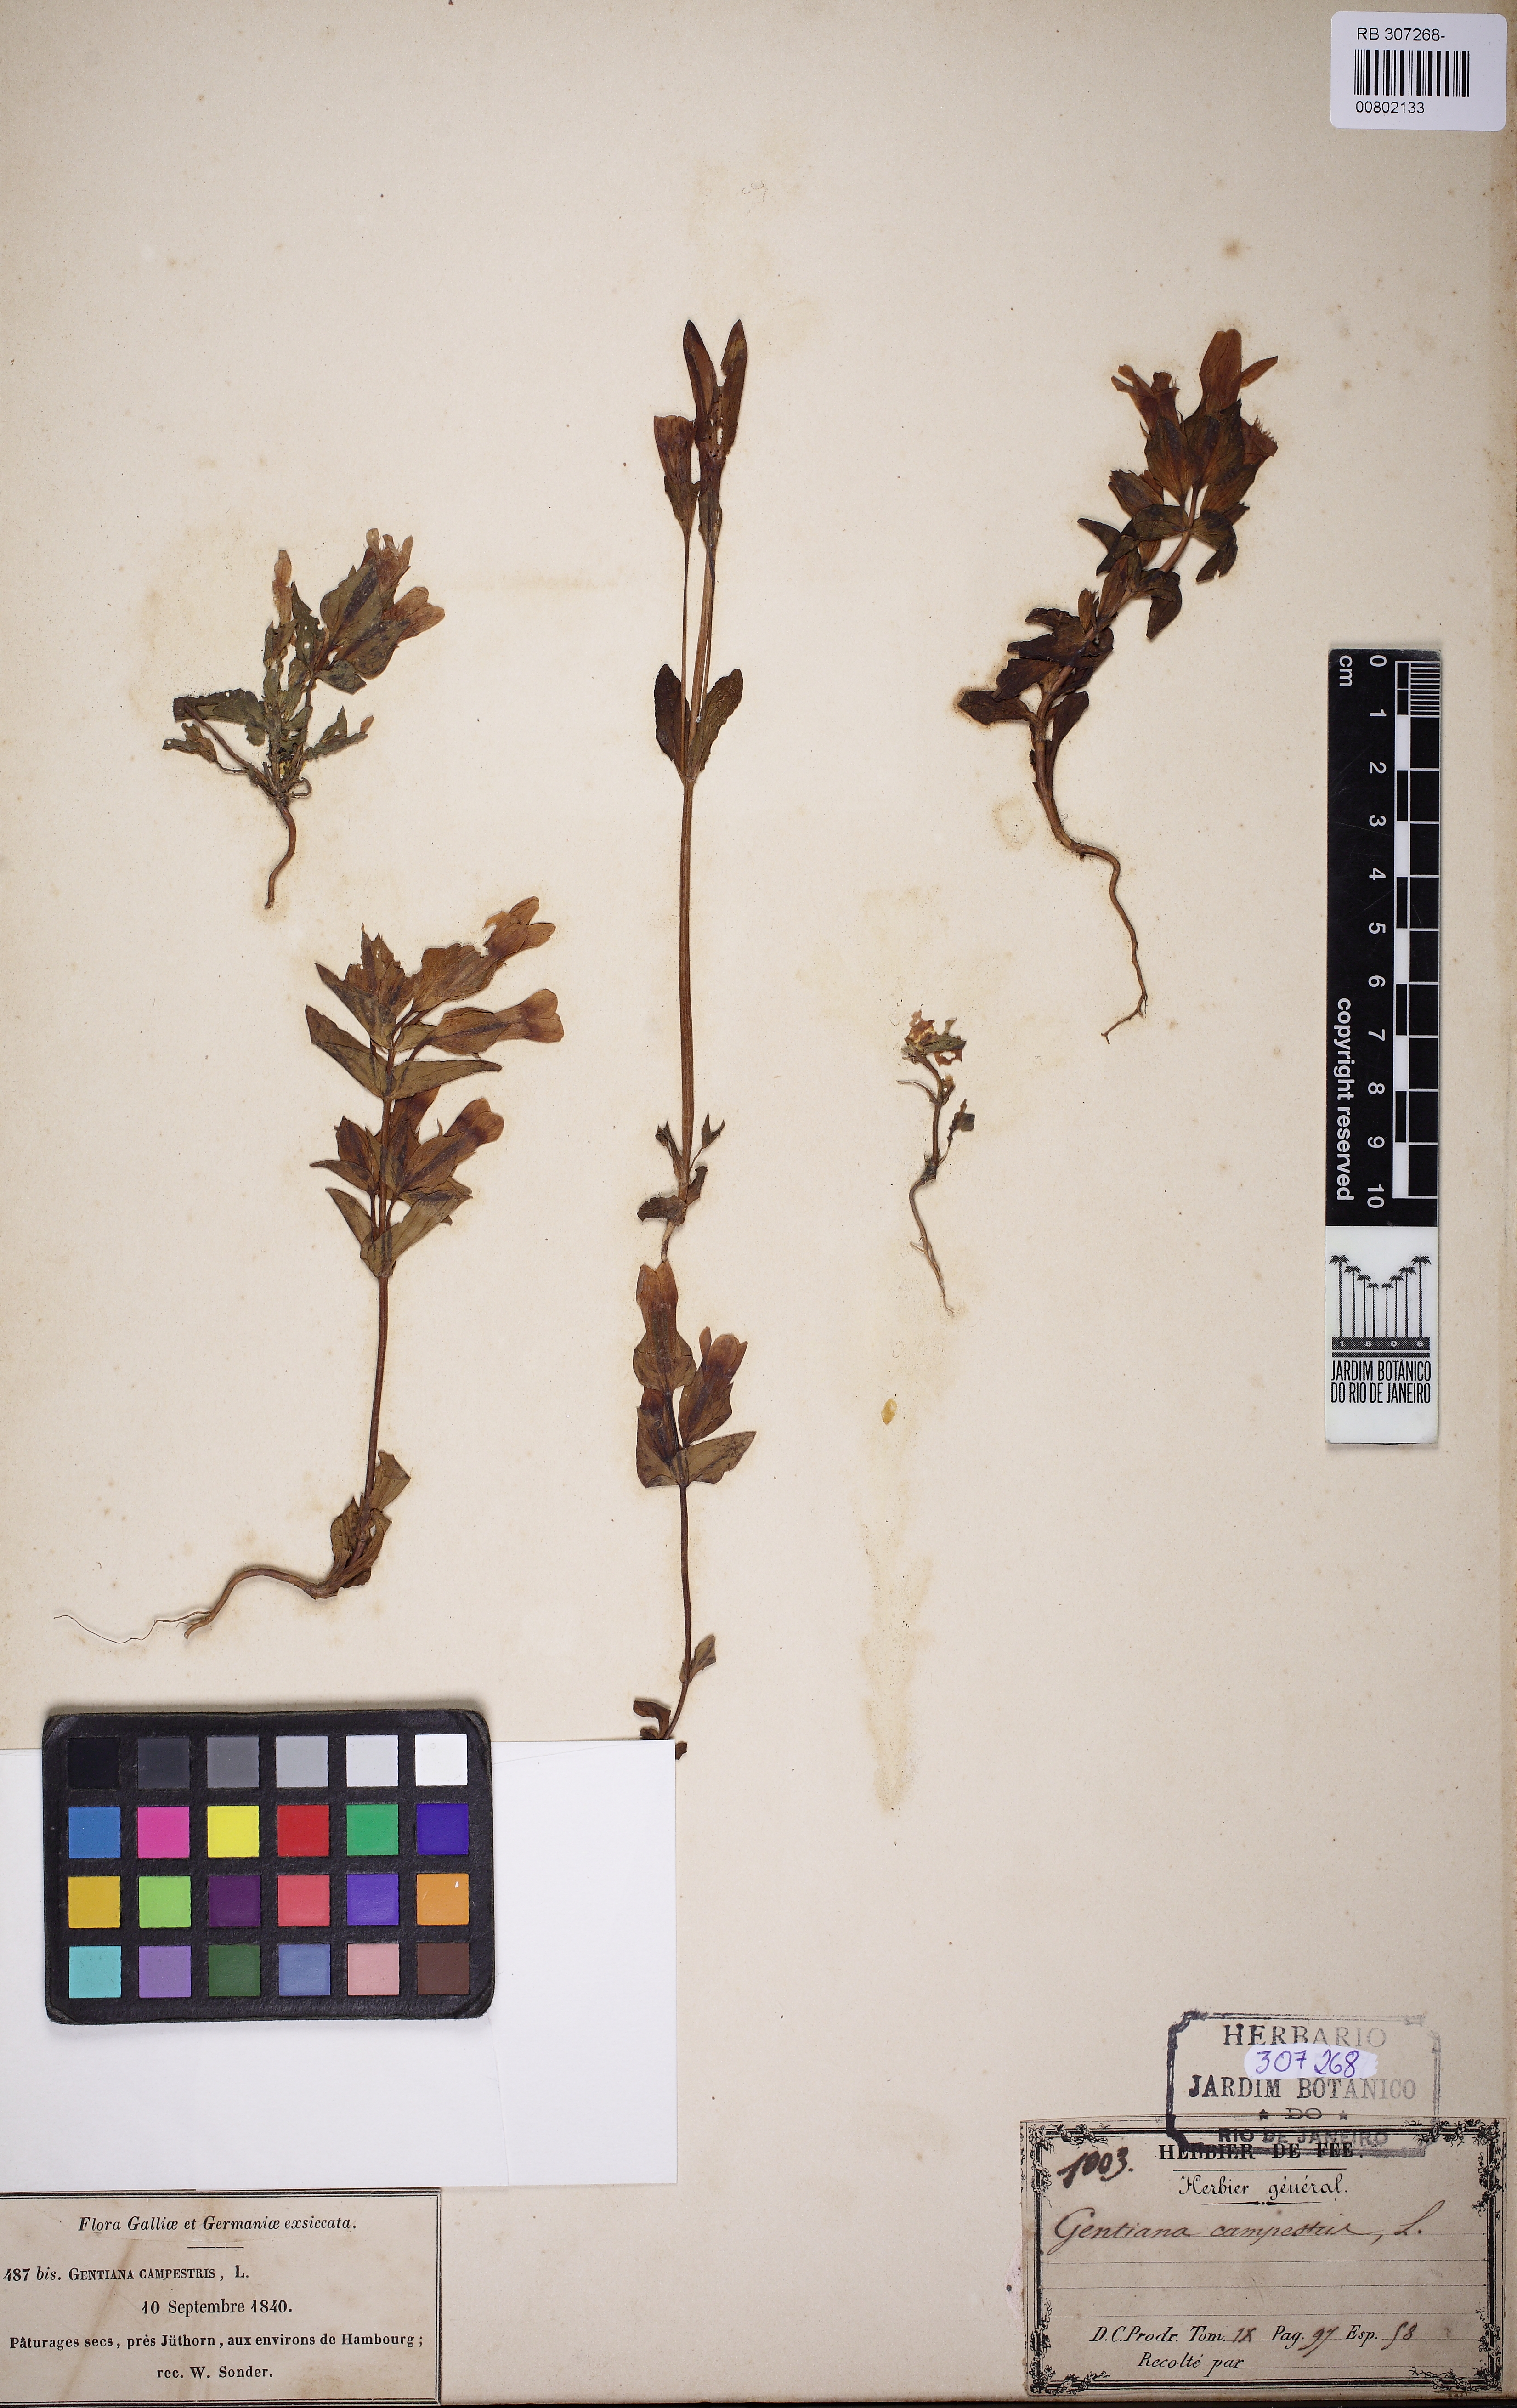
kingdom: Plantae
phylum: Tracheophyta
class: Magnoliopsida
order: Gentianales
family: Gentianaceae
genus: Gentianella
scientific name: Gentianella campestris
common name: Field gentian
